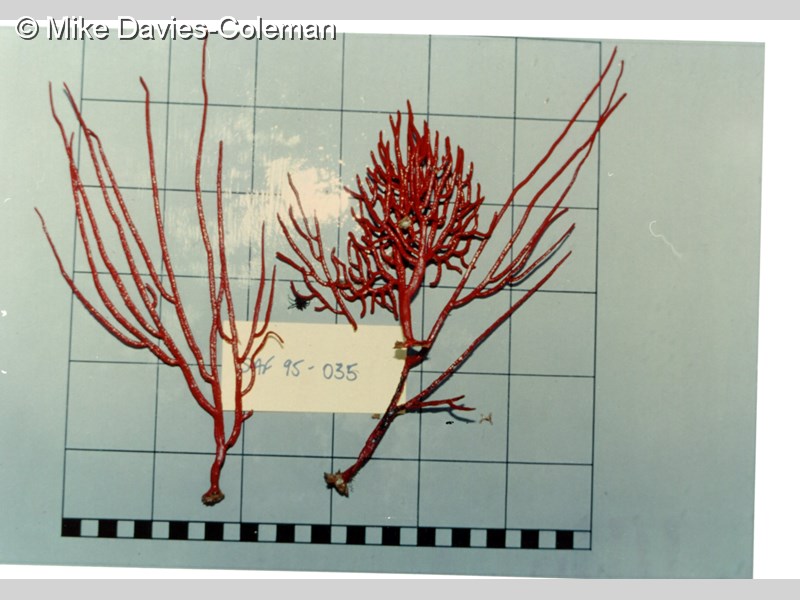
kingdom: Animalia
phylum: Cnidaria
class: Anthozoa
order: Malacalcyonacea
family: Gorgoniidae
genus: Leptogorgia
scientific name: Leptogorgia palma
